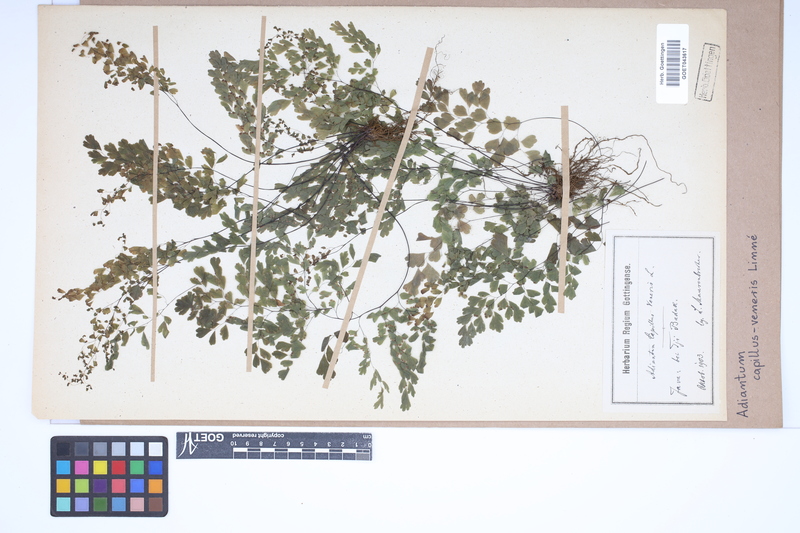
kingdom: Plantae
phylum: Tracheophyta
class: Polypodiopsida
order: Polypodiales
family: Pteridaceae
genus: Adiantum
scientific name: Adiantum capillus-veneris
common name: Maidenhair fern
